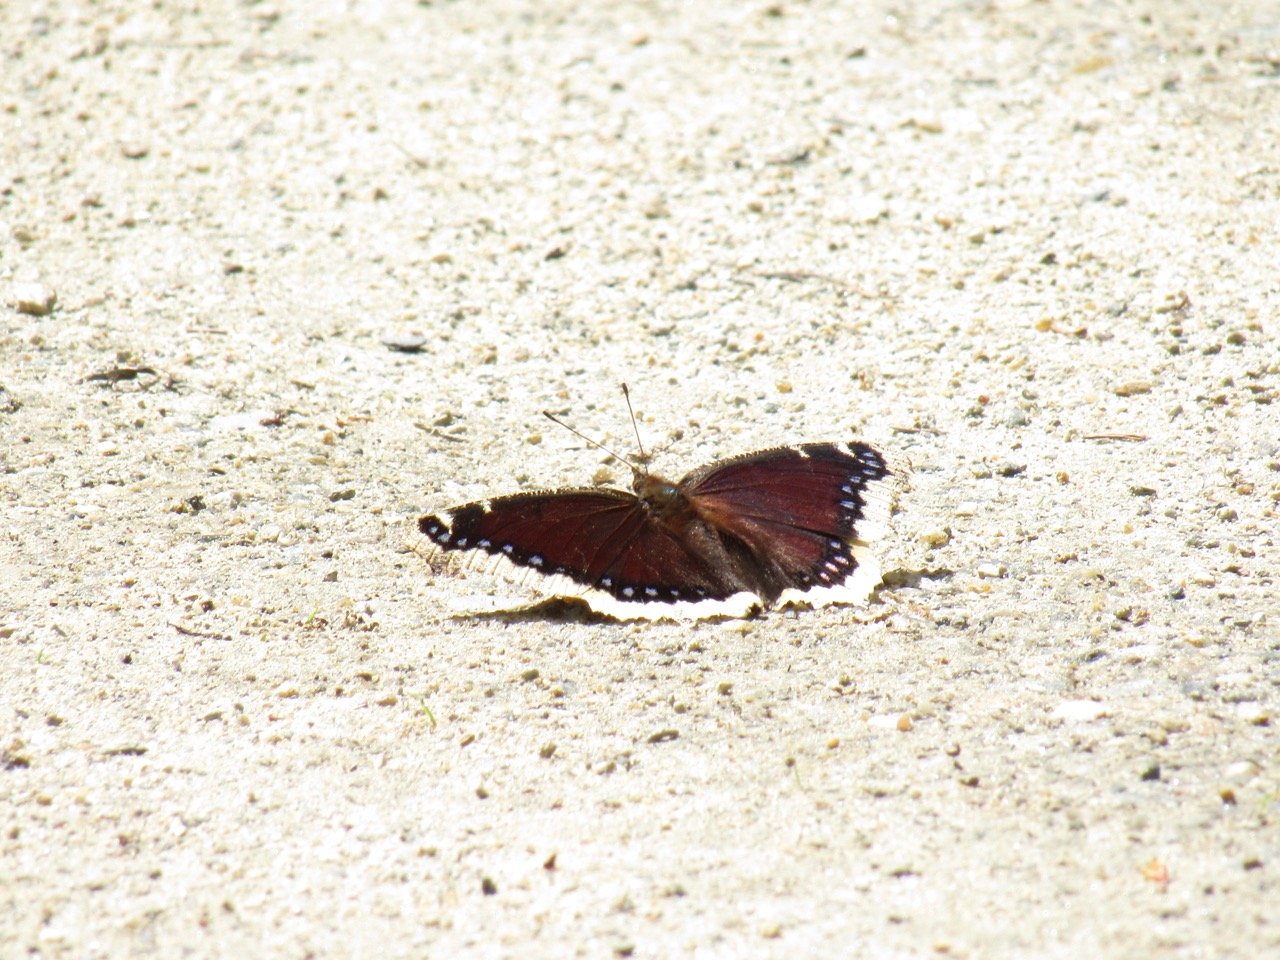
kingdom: Animalia
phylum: Arthropoda
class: Insecta
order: Lepidoptera
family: Nymphalidae
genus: Nymphalis
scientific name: Nymphalis antiopa
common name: Mourning Cloak
